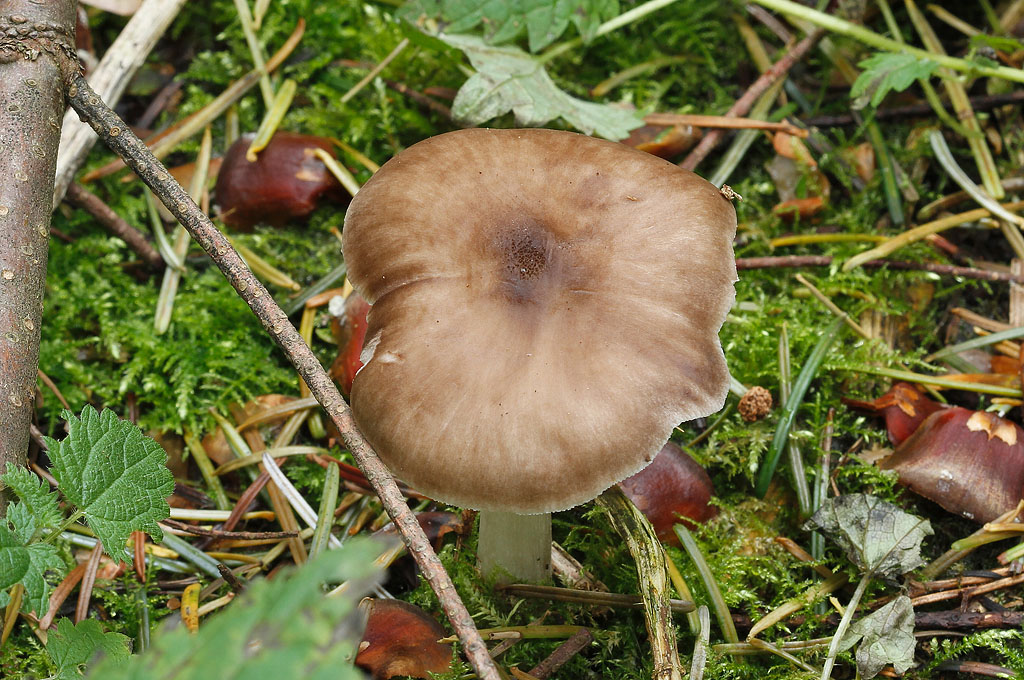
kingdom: Fungi
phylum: Basidiomycota
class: Agaricomycetes
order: Agaricales
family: Pluteaceae
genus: Pluteus
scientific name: Pluteus primus
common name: tidlig skærmhat
